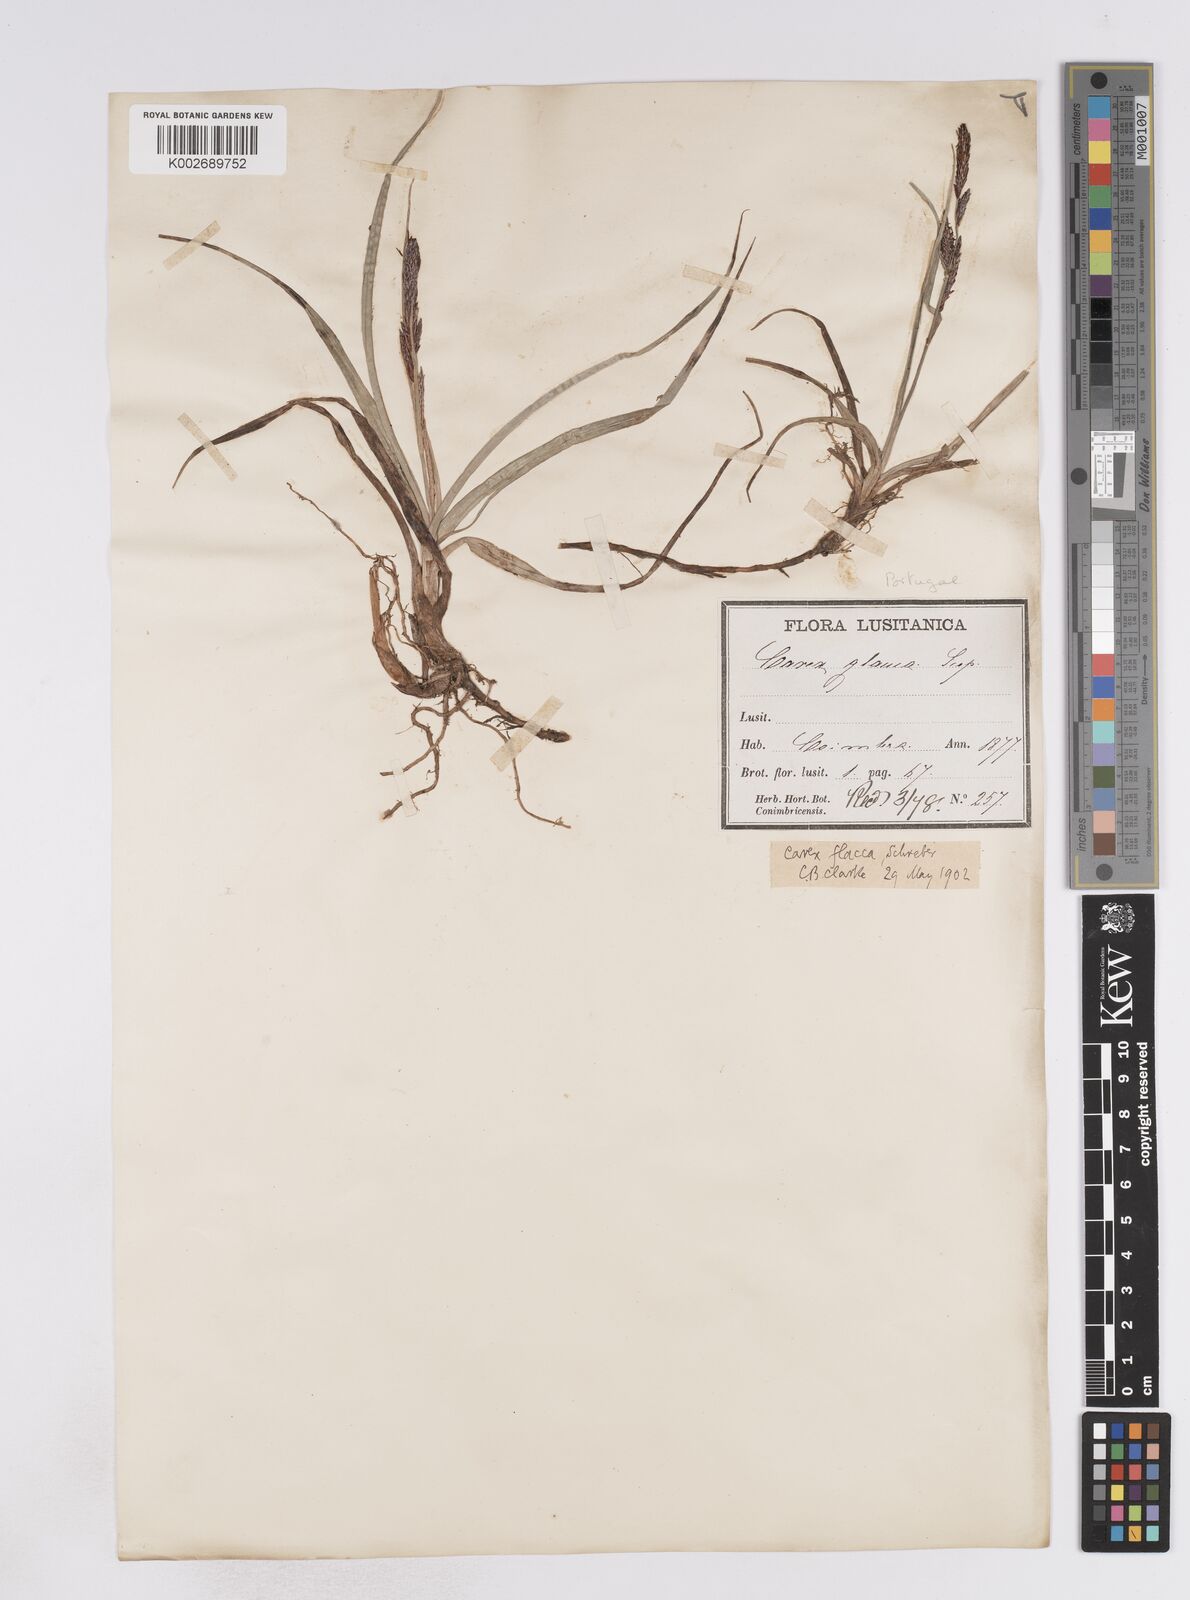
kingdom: Plantae
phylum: Tracheophyta
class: Liliopsida
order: Poales
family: Cyperaceae
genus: Carex
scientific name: Carex flacca
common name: Glaucous sedge
